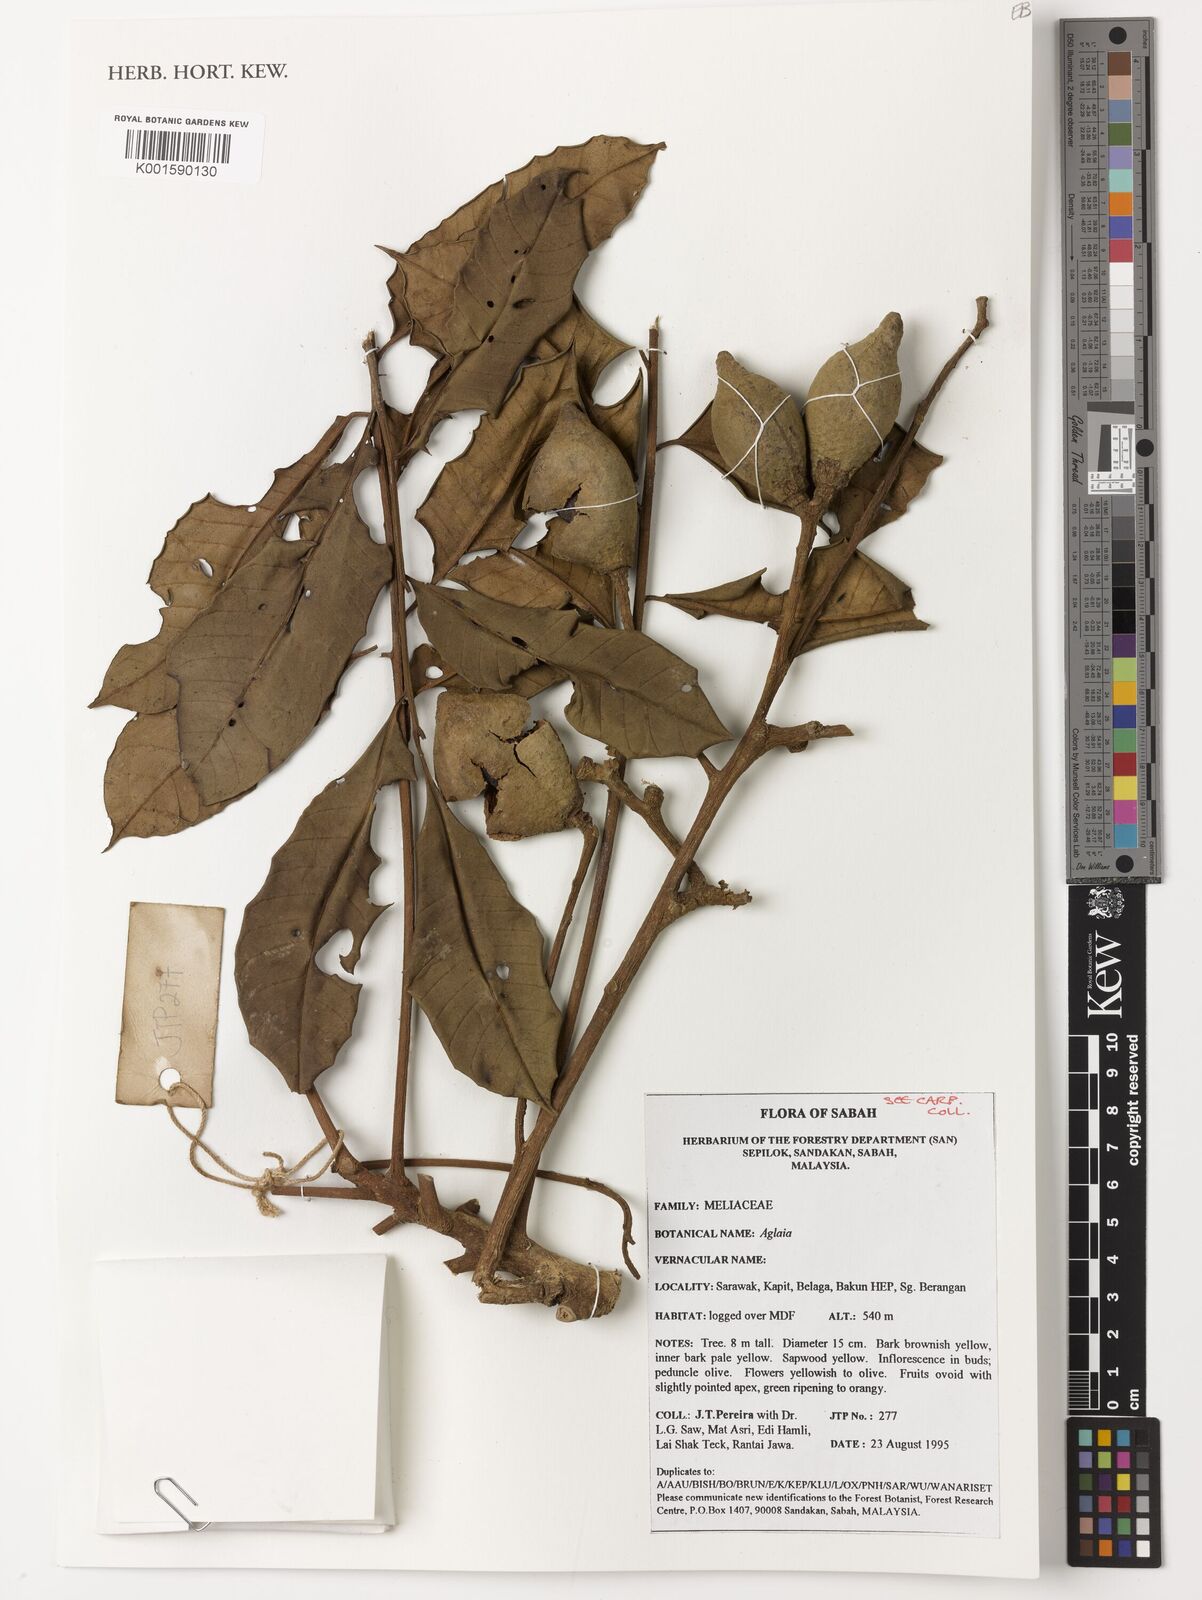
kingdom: Plantae
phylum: Tracheophyta
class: Magnoliopsida
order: Sapindales
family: Meliaceae
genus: Aglaia
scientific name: Aglaia
